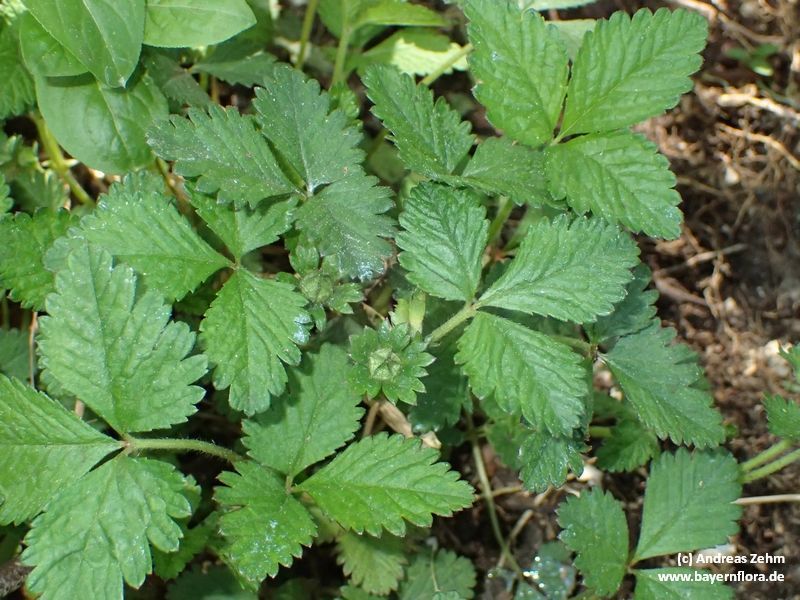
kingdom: Plantae
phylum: Tracheophyta
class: Magnoliopsida
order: Rosales
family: Rosaceae
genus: Potentilla
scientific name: Potentilla indica
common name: Yellow-flowered strawberry
